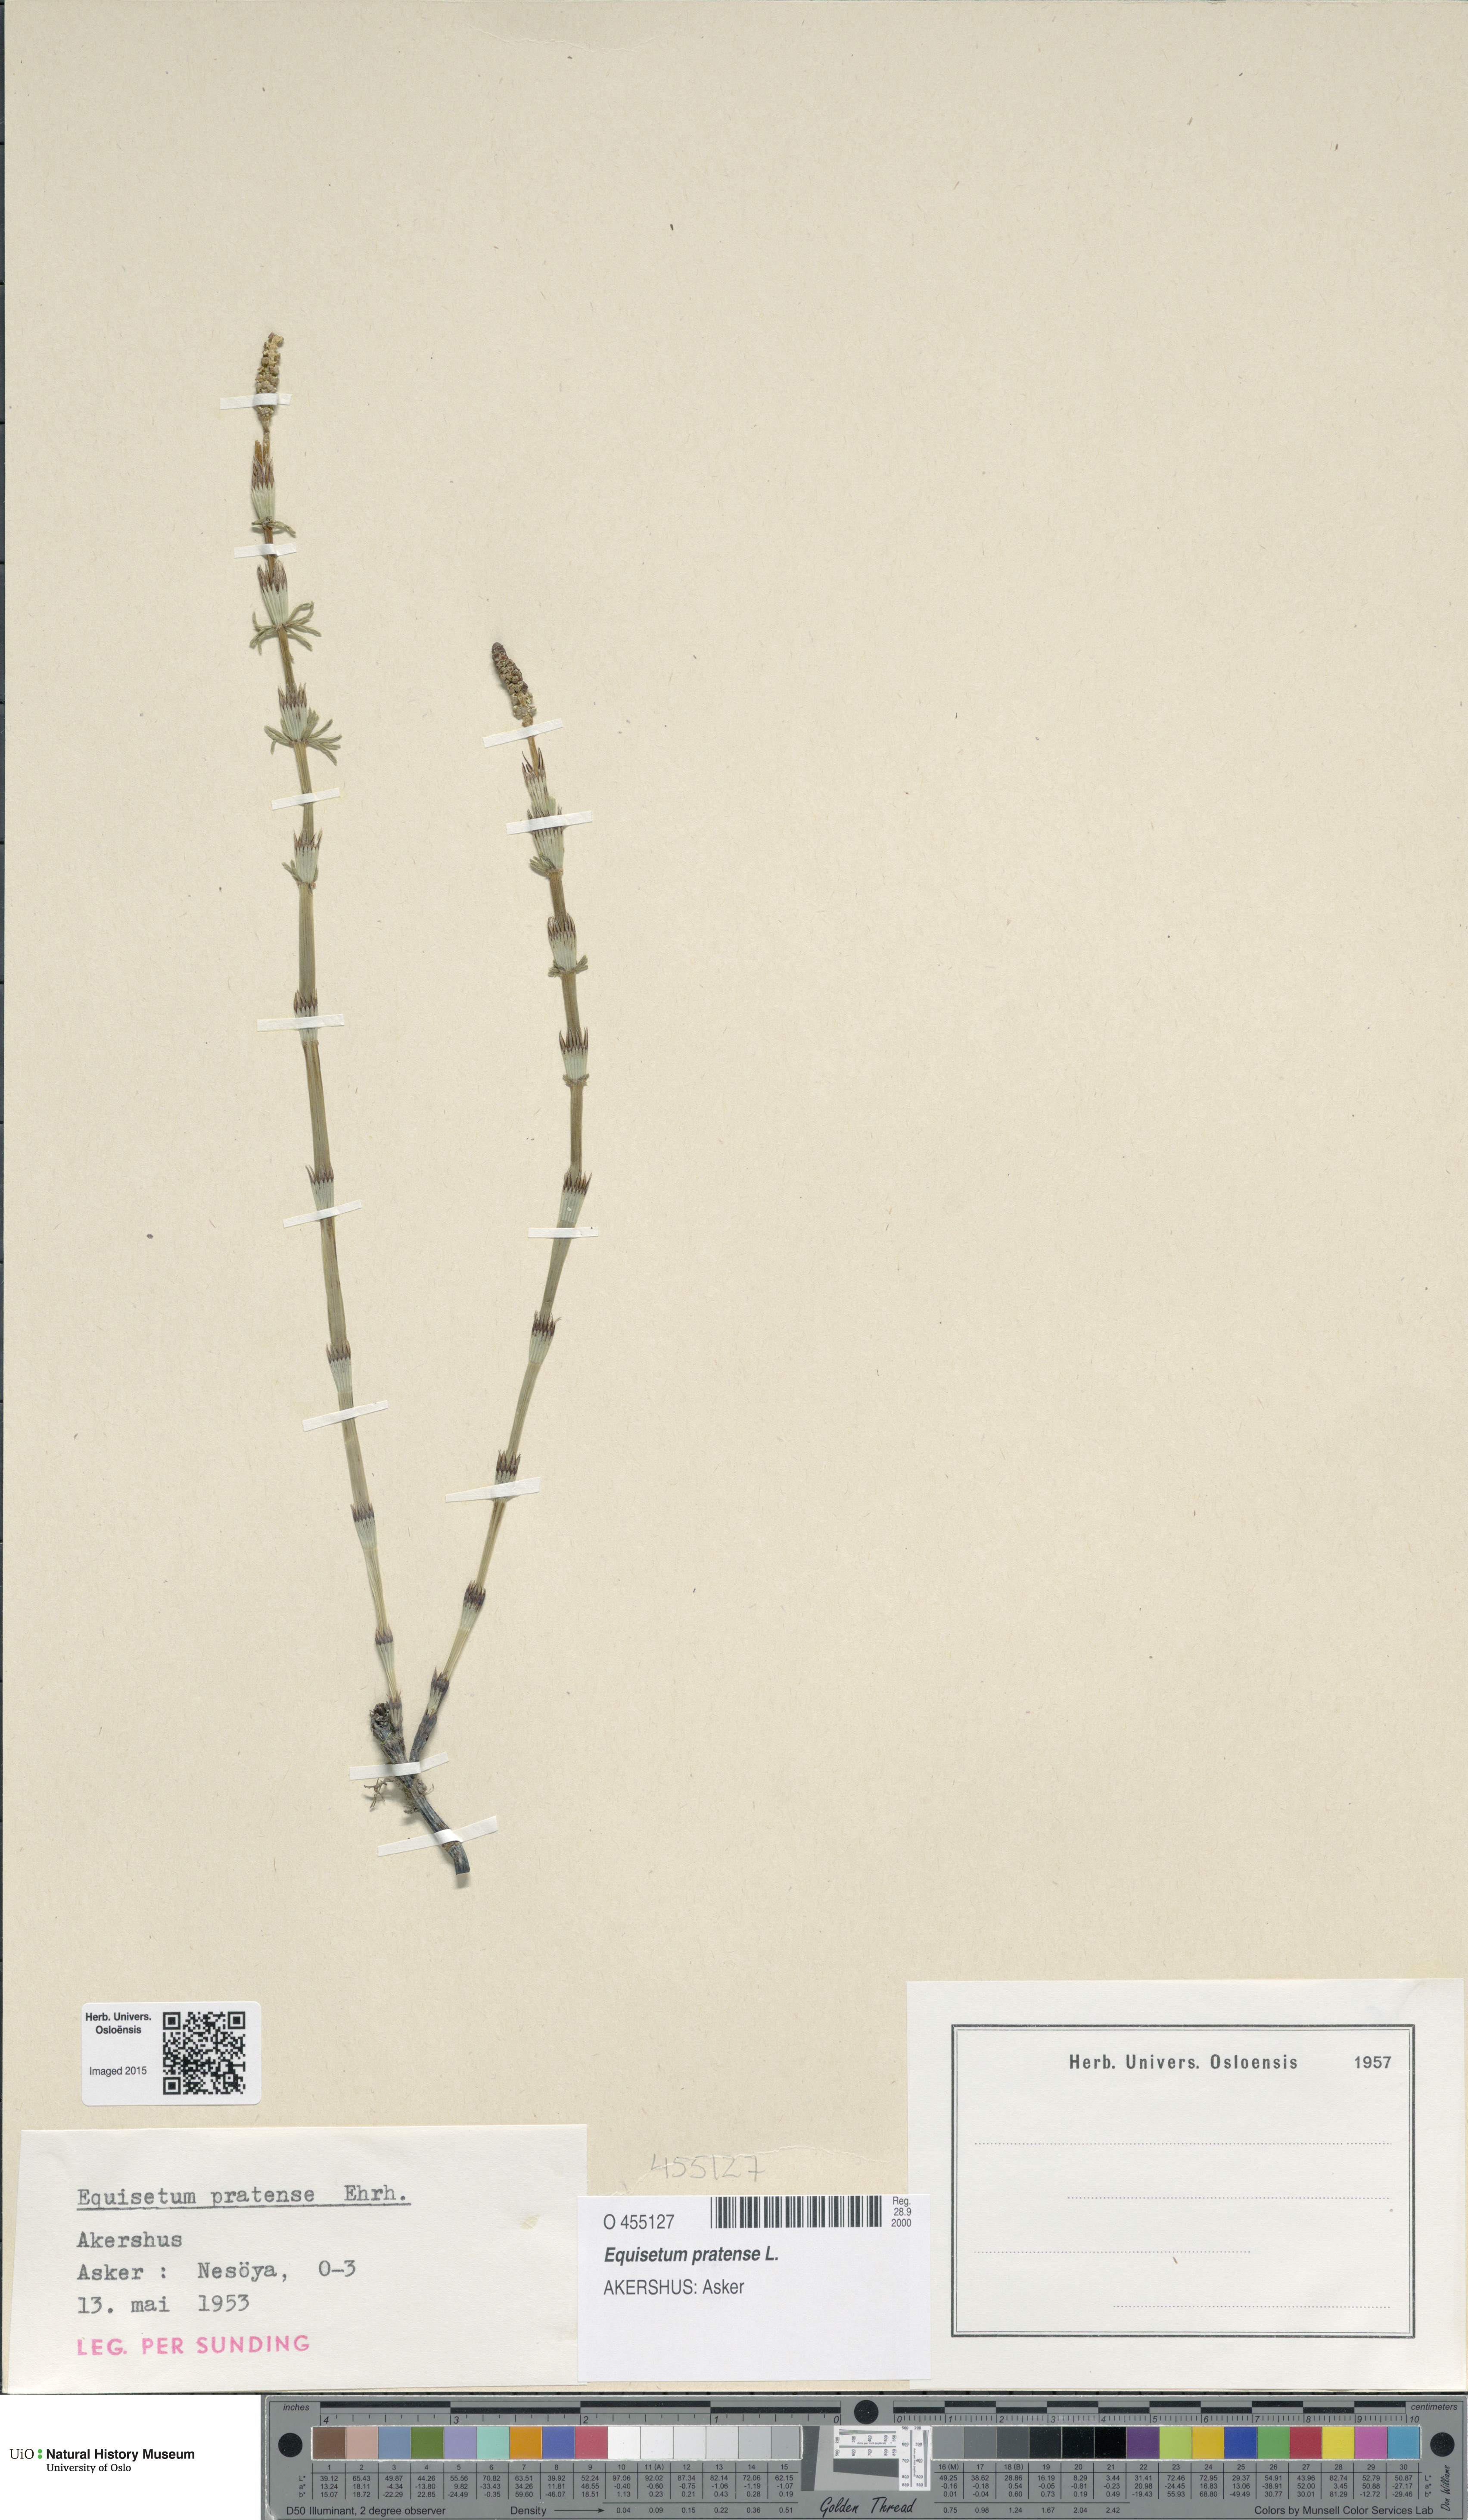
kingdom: Plantae
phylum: Tracheophyta
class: Polypodiopsida
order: Equisetales
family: Equisetaceae
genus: Equisetum
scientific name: Equisetum pratense
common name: Meadow horsetail
